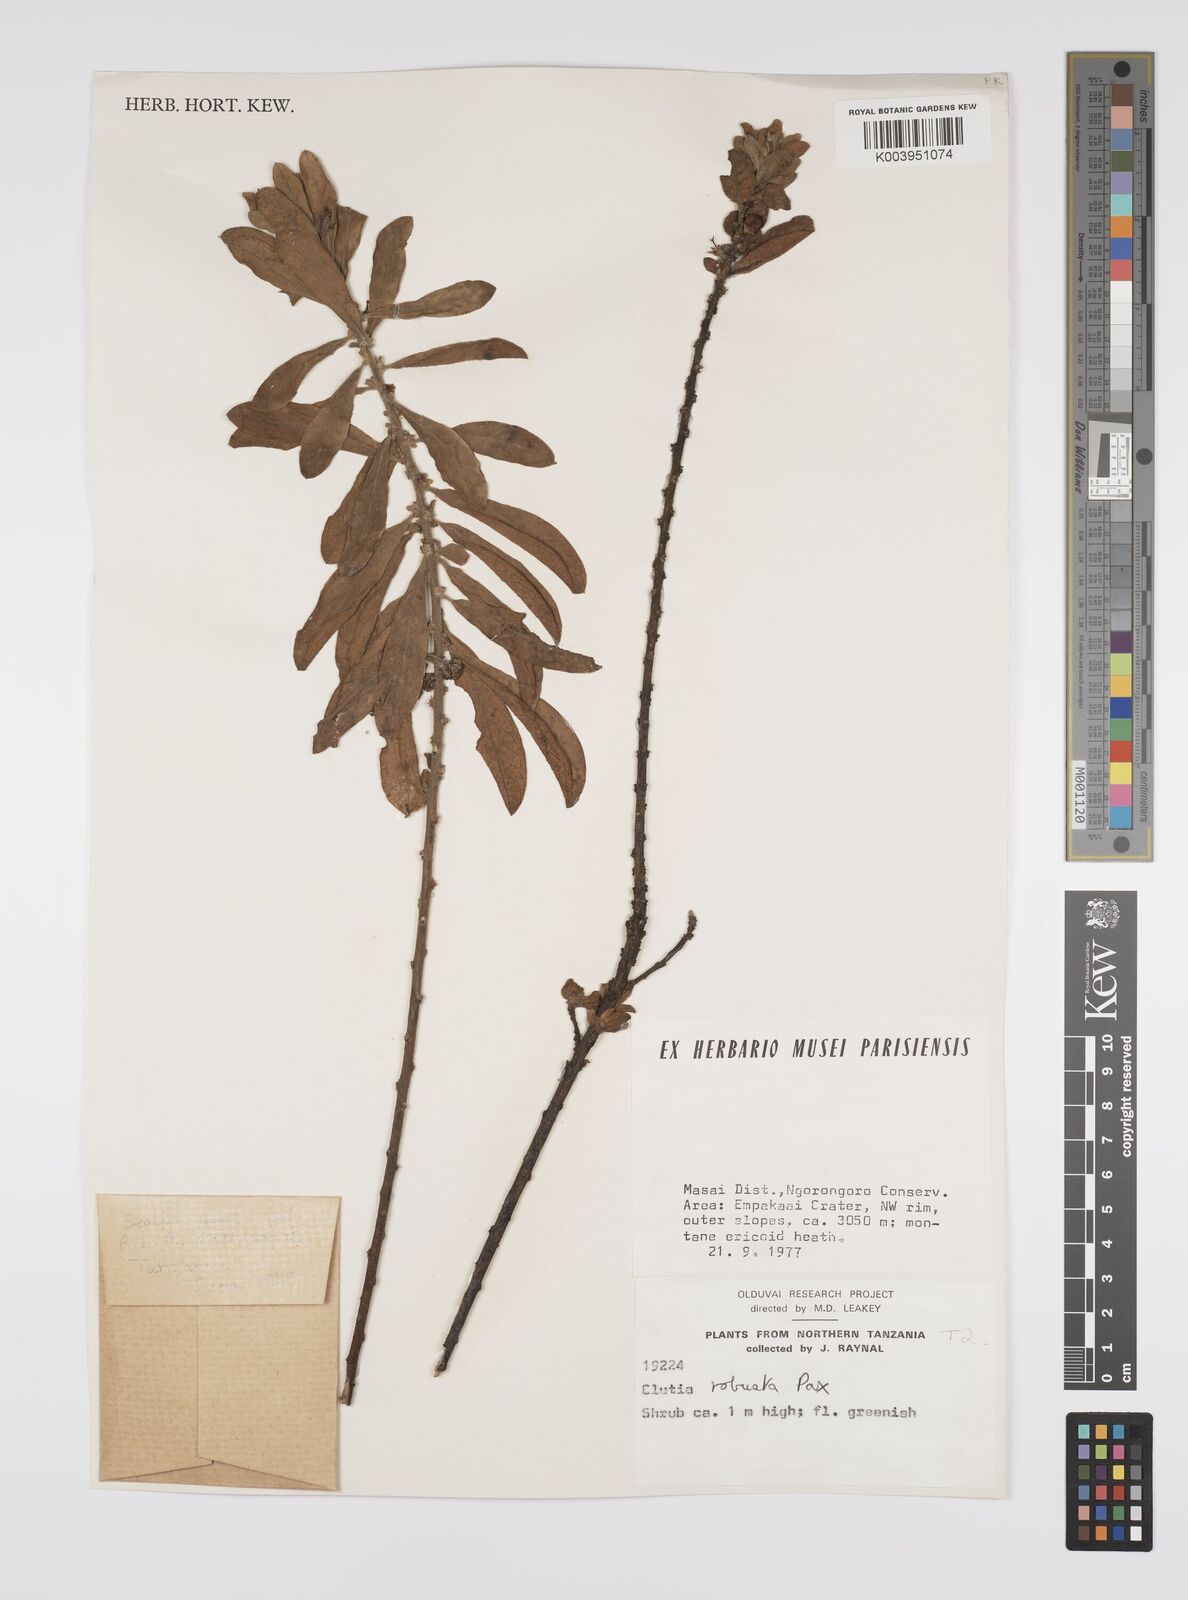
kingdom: Plantae
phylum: Tracheophyta
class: Magnoliopsida
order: Malpighiales
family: Peraceae
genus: Clutia
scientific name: Clutia kilimandscharica
